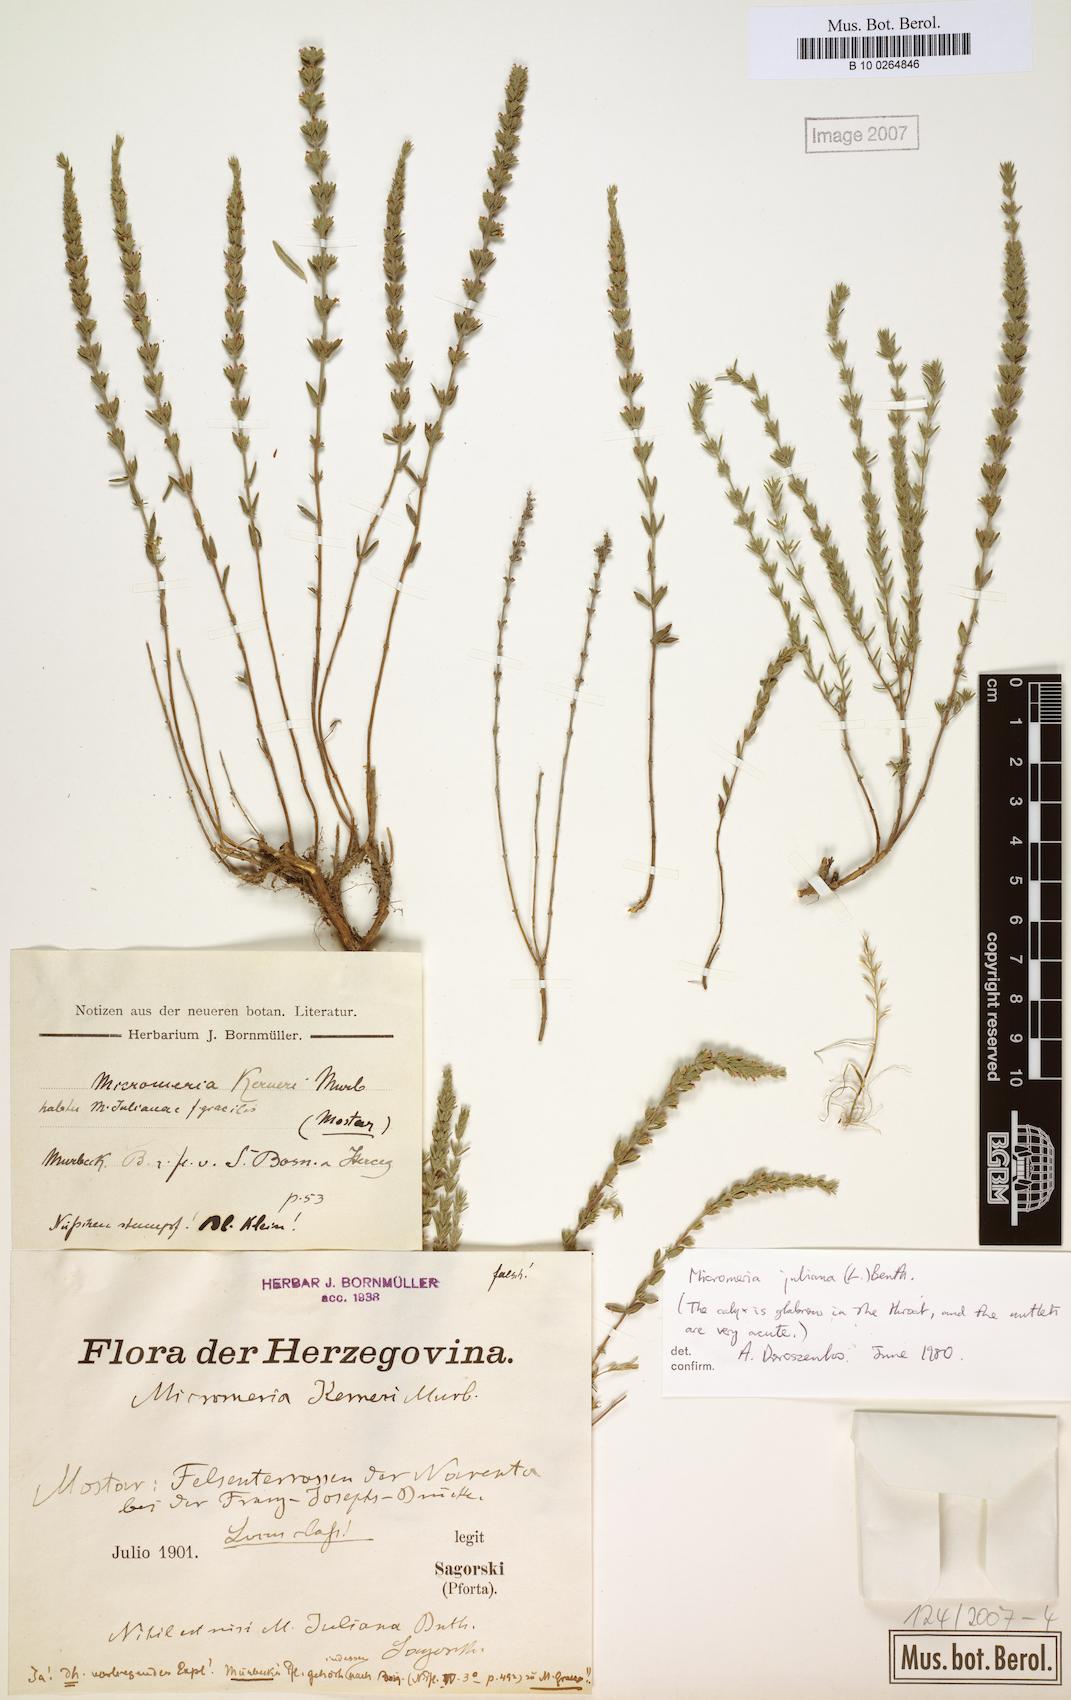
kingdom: Plantae
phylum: Tracheophyta
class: Magnoliopsida
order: Lamiales
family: Lamiaceae
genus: Micromeria
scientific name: Micromeria juliana
